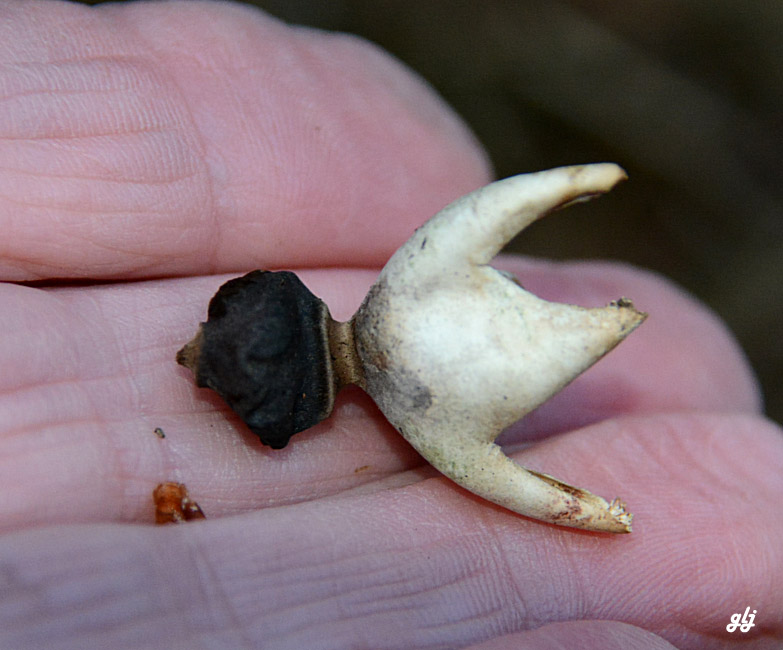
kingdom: Fungi
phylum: Basidiomycota
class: Agaricomycetes
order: Geastrales
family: Geastraceae
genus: Geastrum
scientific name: Geastrum quadrifidum
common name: firfliget stjernebold
